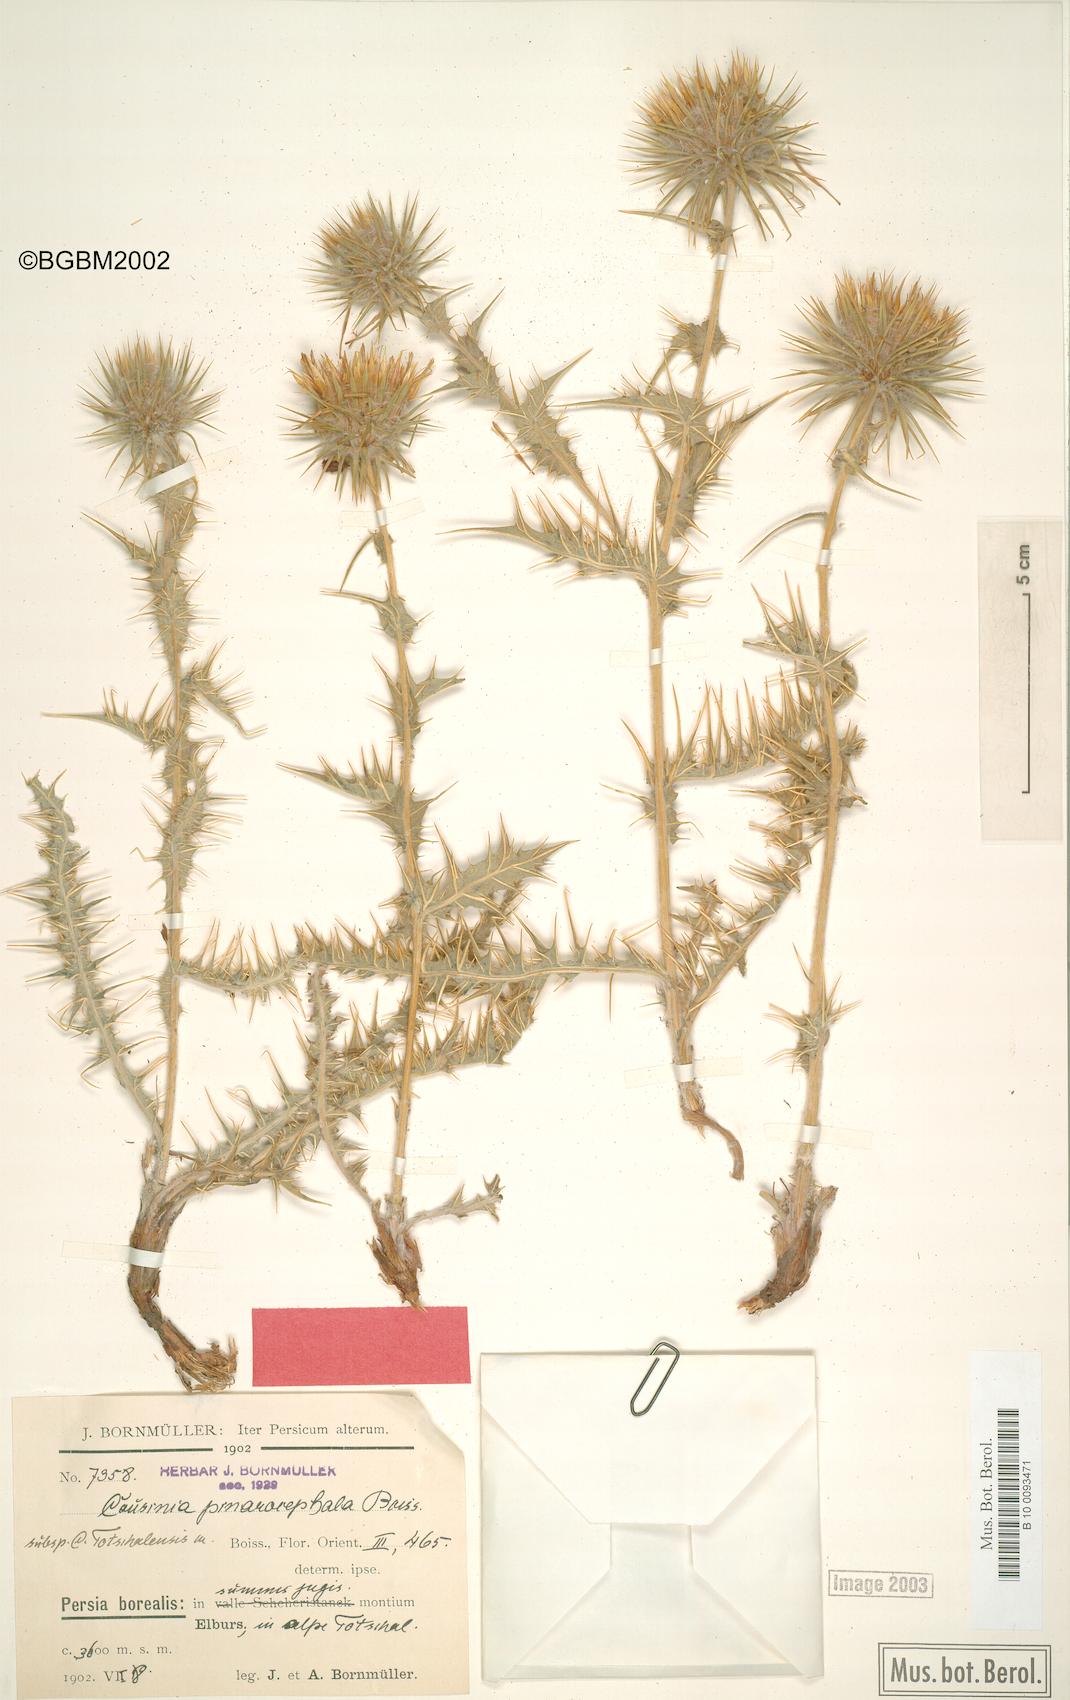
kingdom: Plantae
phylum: Tracheophyta
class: Magnoliopsida
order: Asterales
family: Asteraceae
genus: Cousinia
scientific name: Cousinia pinarocephala
